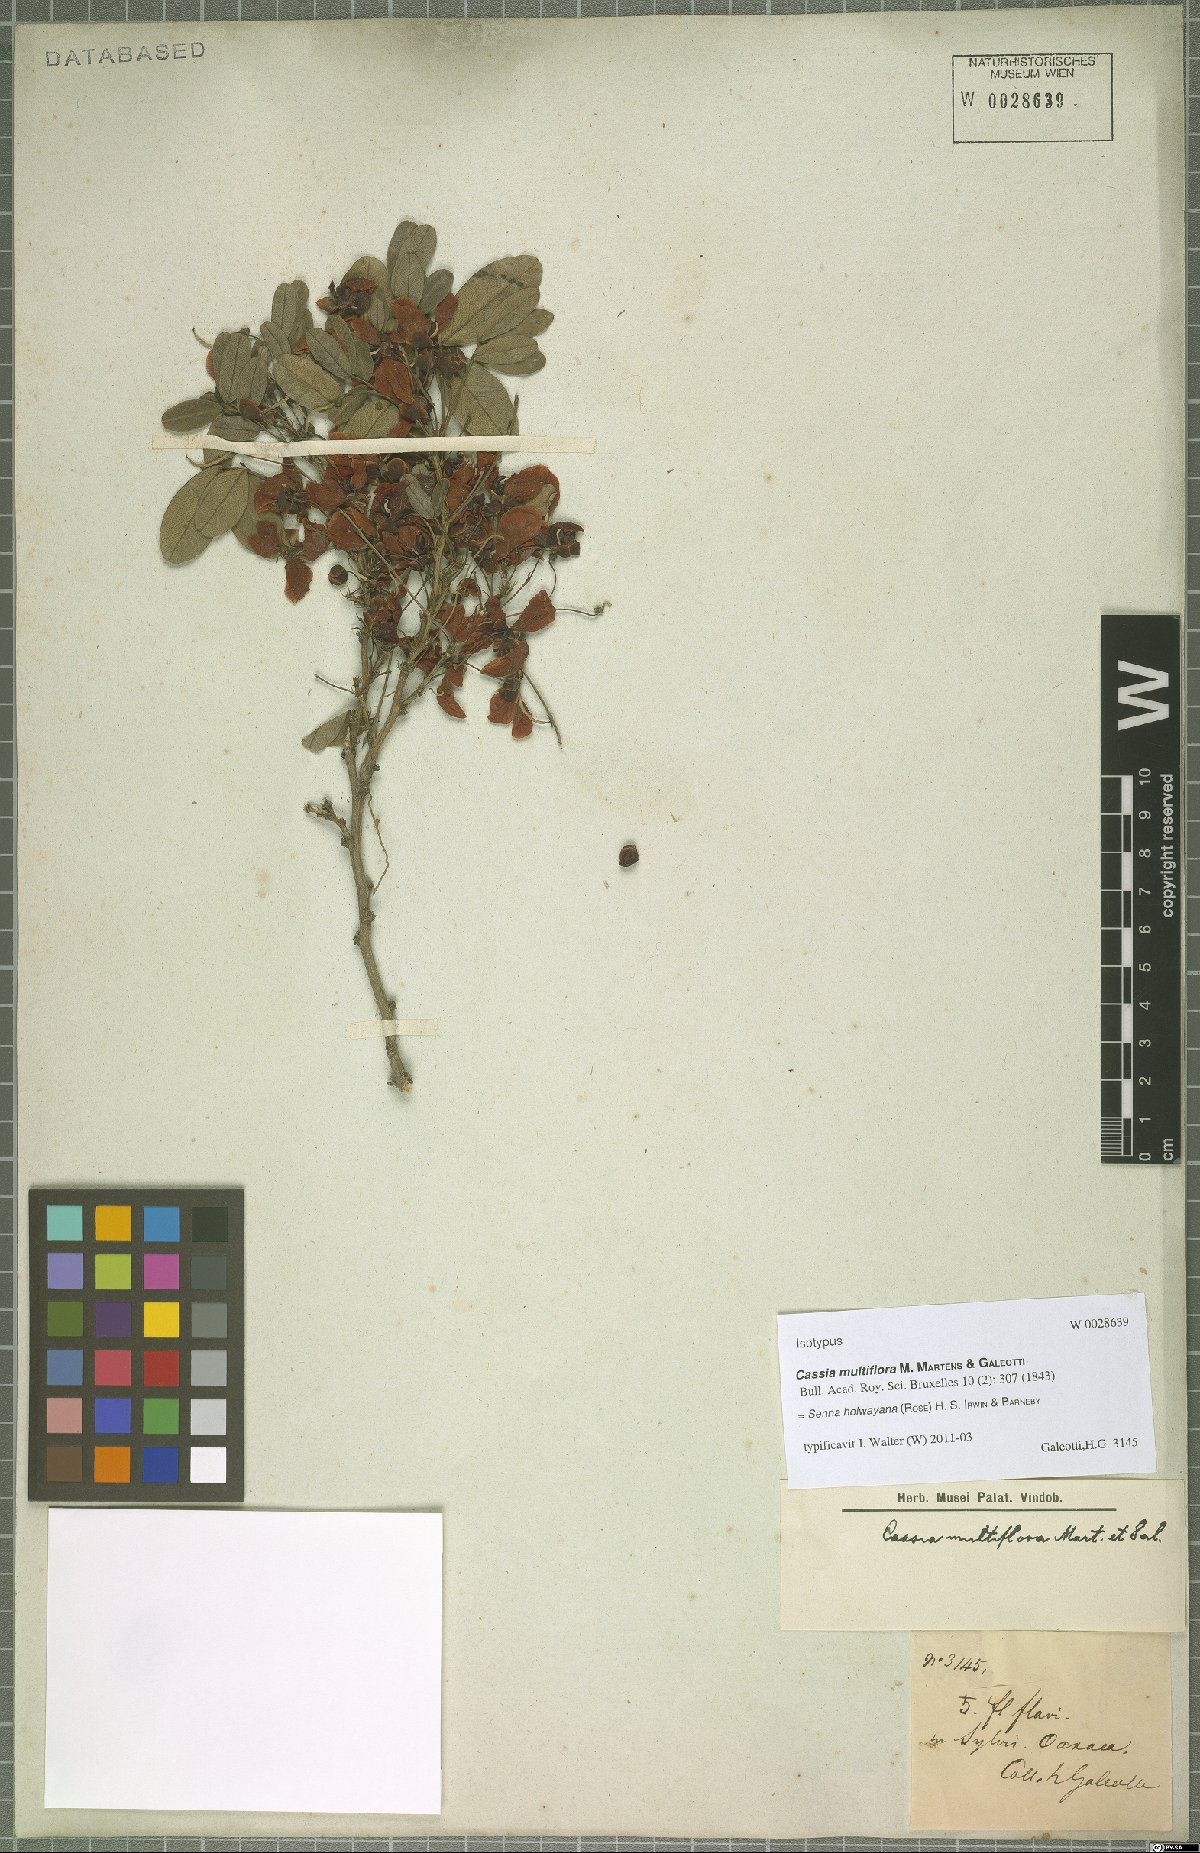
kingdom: Plantae
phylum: Tracheophyta
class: Magnoliopsida
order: Fabales
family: Fabaceae
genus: Senna
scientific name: Senna holwayana
